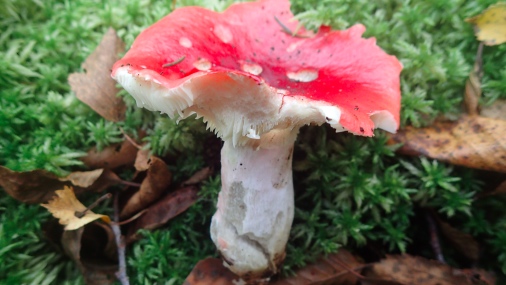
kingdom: Fungi
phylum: Basidiomycota
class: Agaricomycetes
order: Russulales
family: Russulaceae
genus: Russula
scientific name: Russula rhodopus
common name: lak-skørhat
